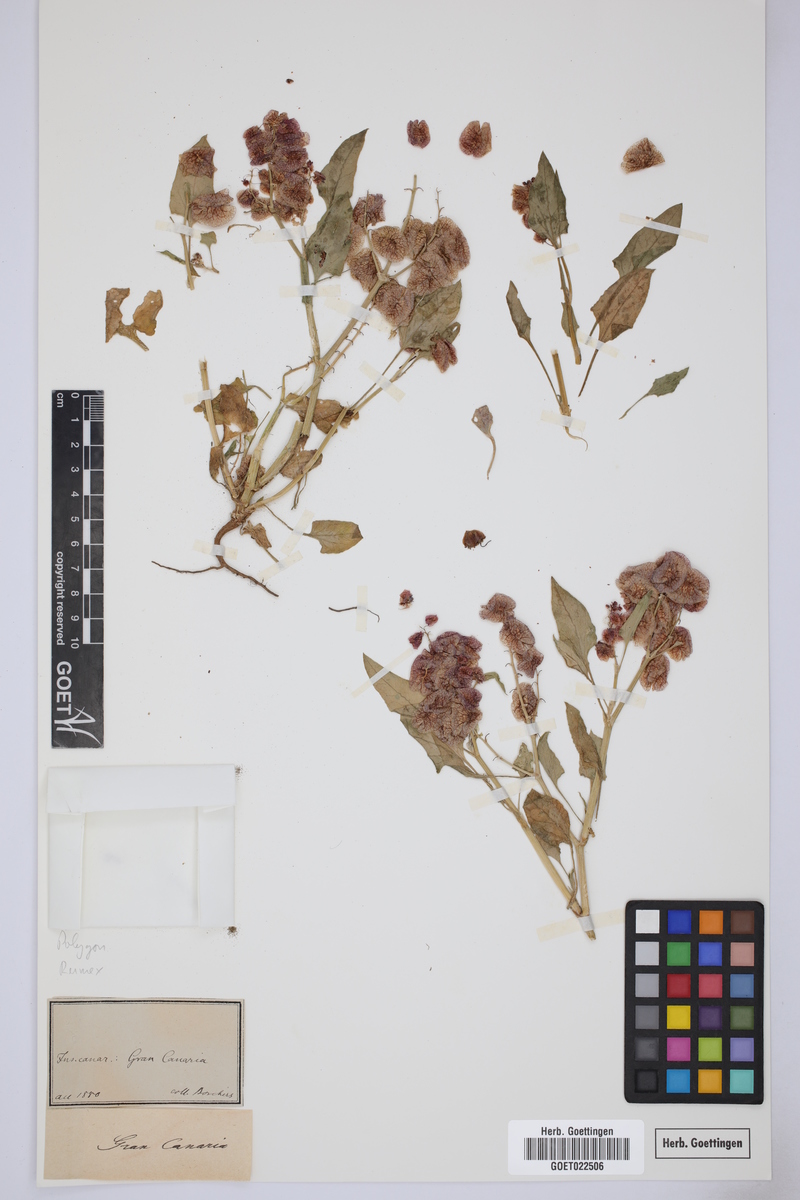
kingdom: Plantae
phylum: Tracheophyta
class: Magnoliopsida
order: Caryophyllales
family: Polygonaceae
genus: Rumex
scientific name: Rumex
